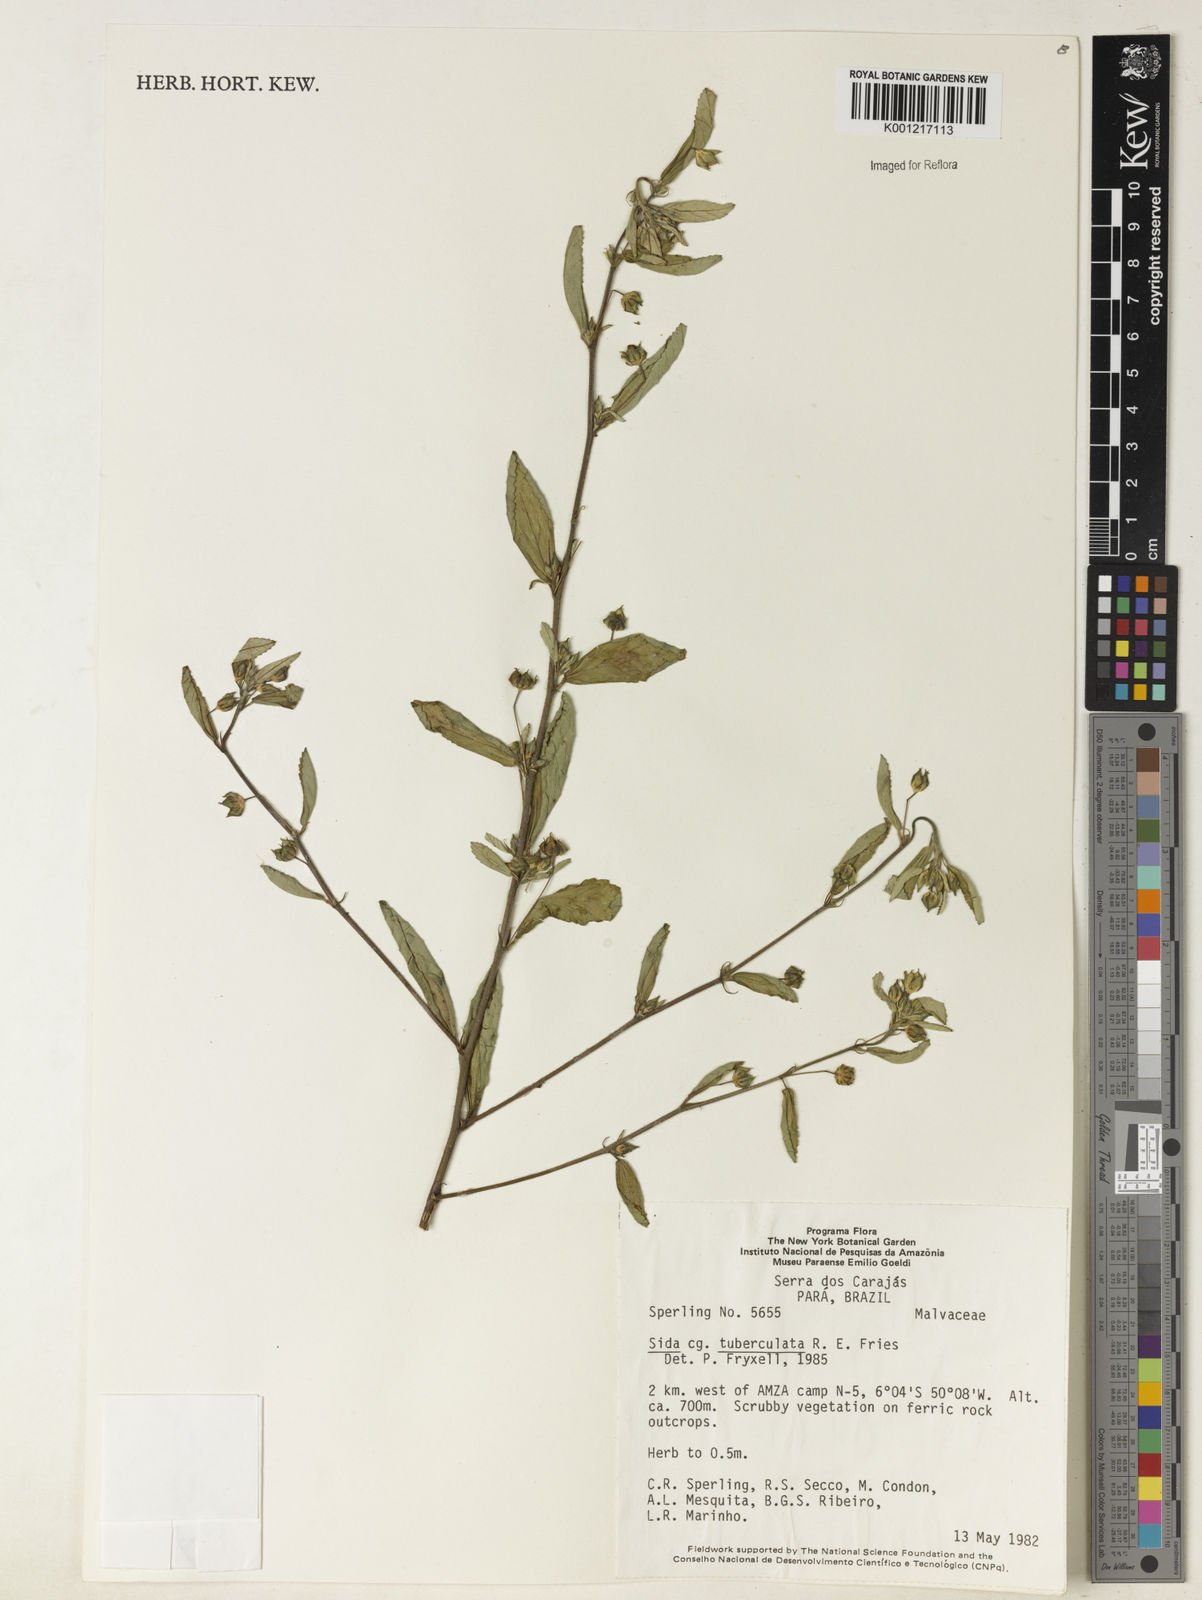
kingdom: Plantae
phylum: Tracheophyta
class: Magnoliopsida
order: Malvales
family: Malvaceae
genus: Sida
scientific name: Sida tuberculata
